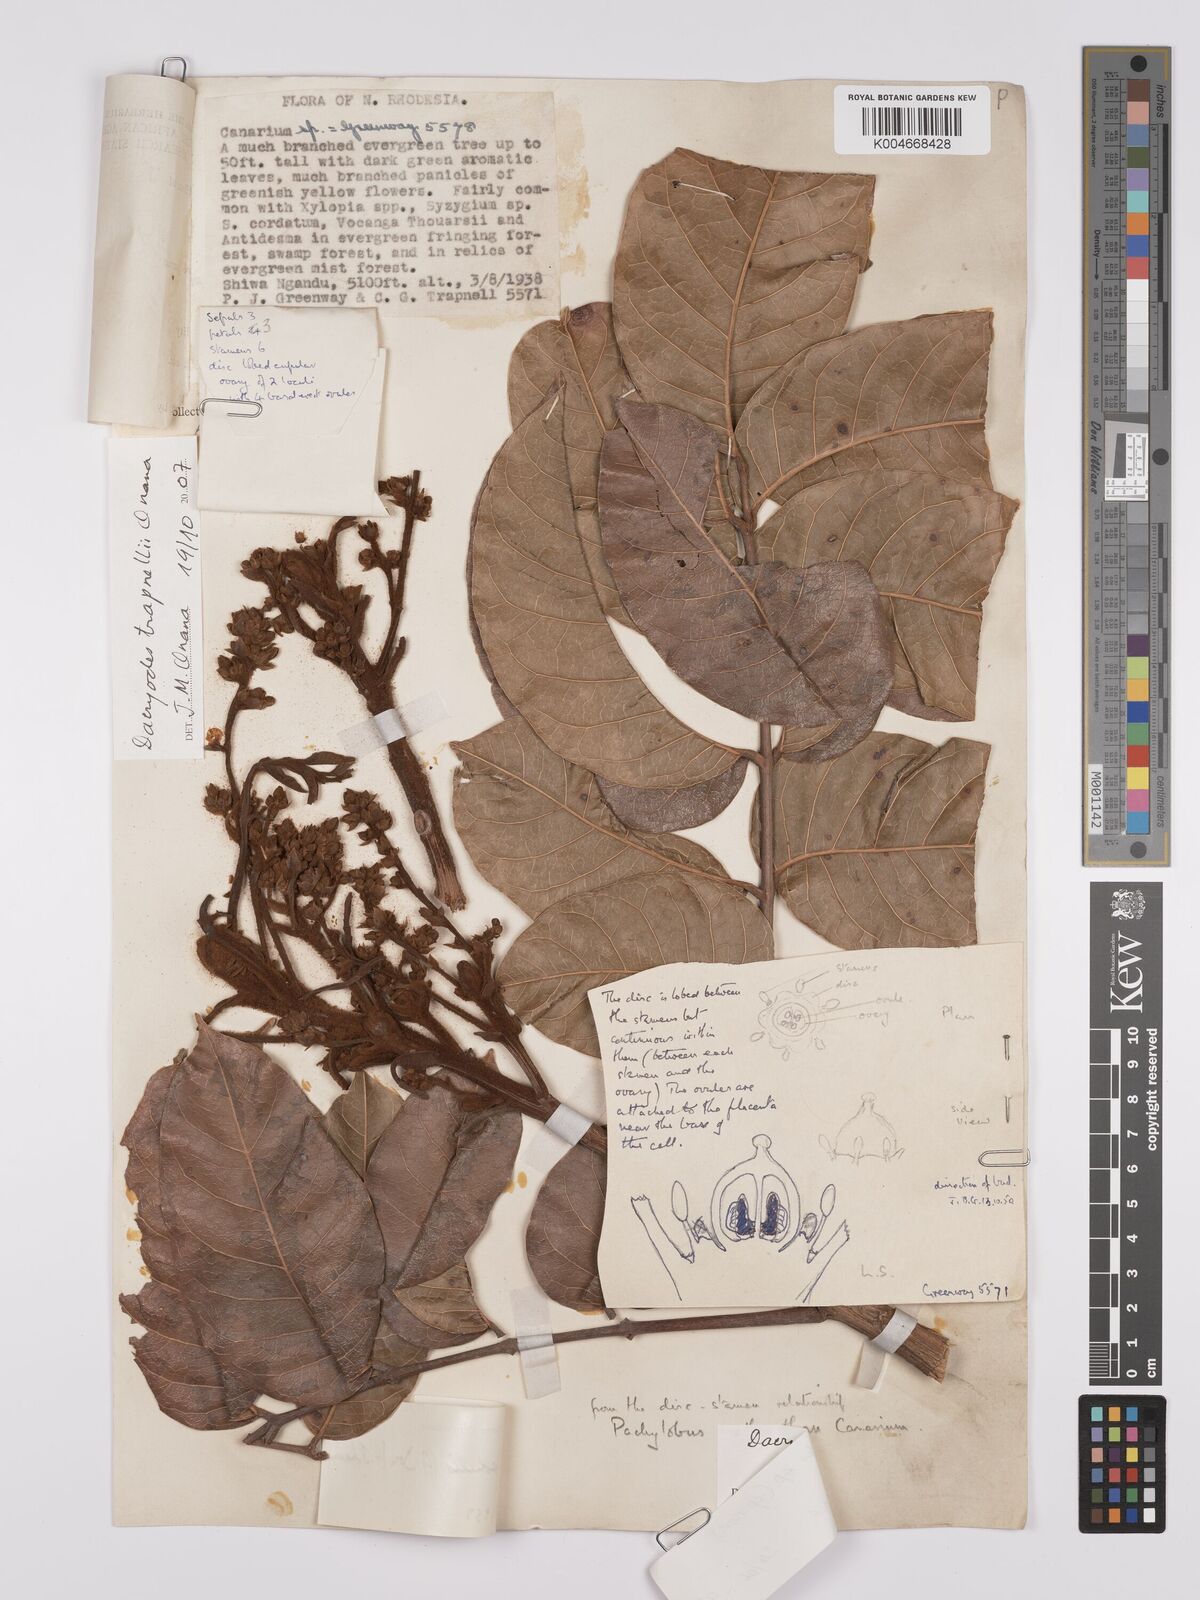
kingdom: Plantae
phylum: Tracheophyta
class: Magnoliopsida
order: Sapindales
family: Burseraceae
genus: Pachylobus
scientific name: Pachylobus trapnellii
